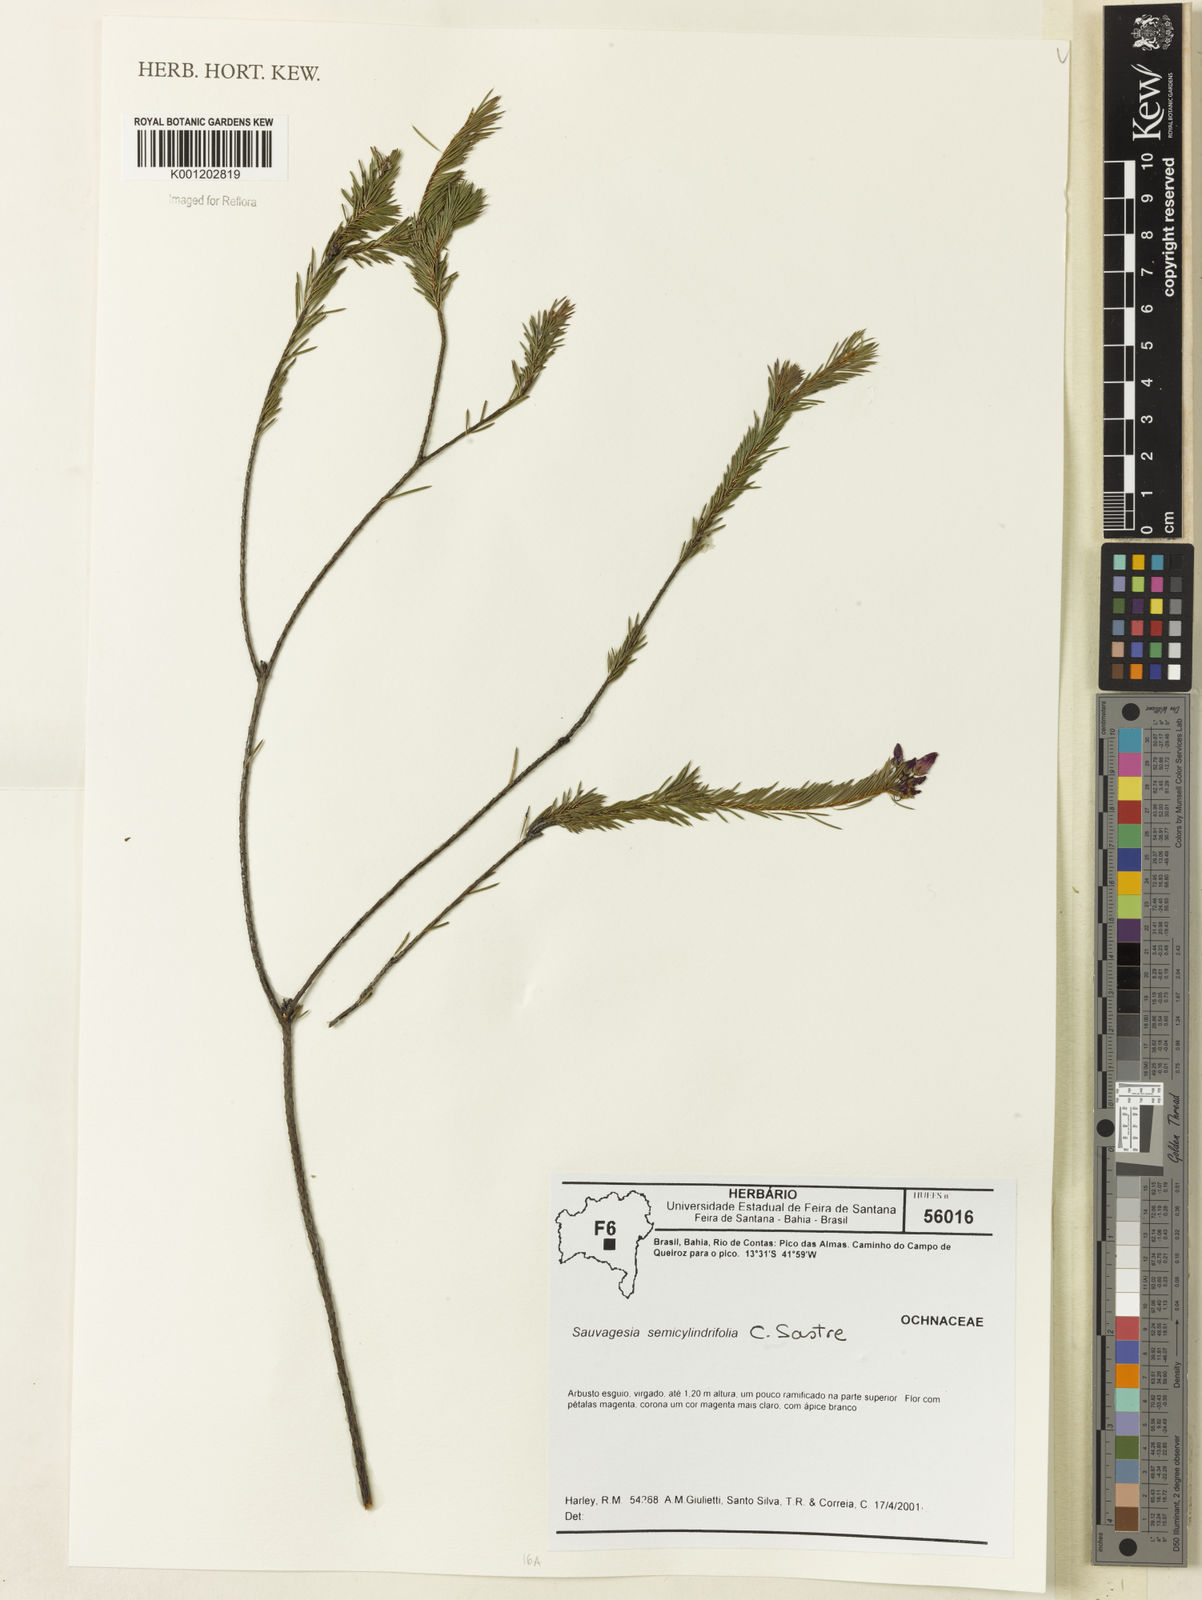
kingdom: Plantae
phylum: Tracheophyta
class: Magnoliopsida
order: Malpighiales
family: Ochnaceae
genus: Sauvagesia
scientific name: Sauvagesia semicylindrifolia
